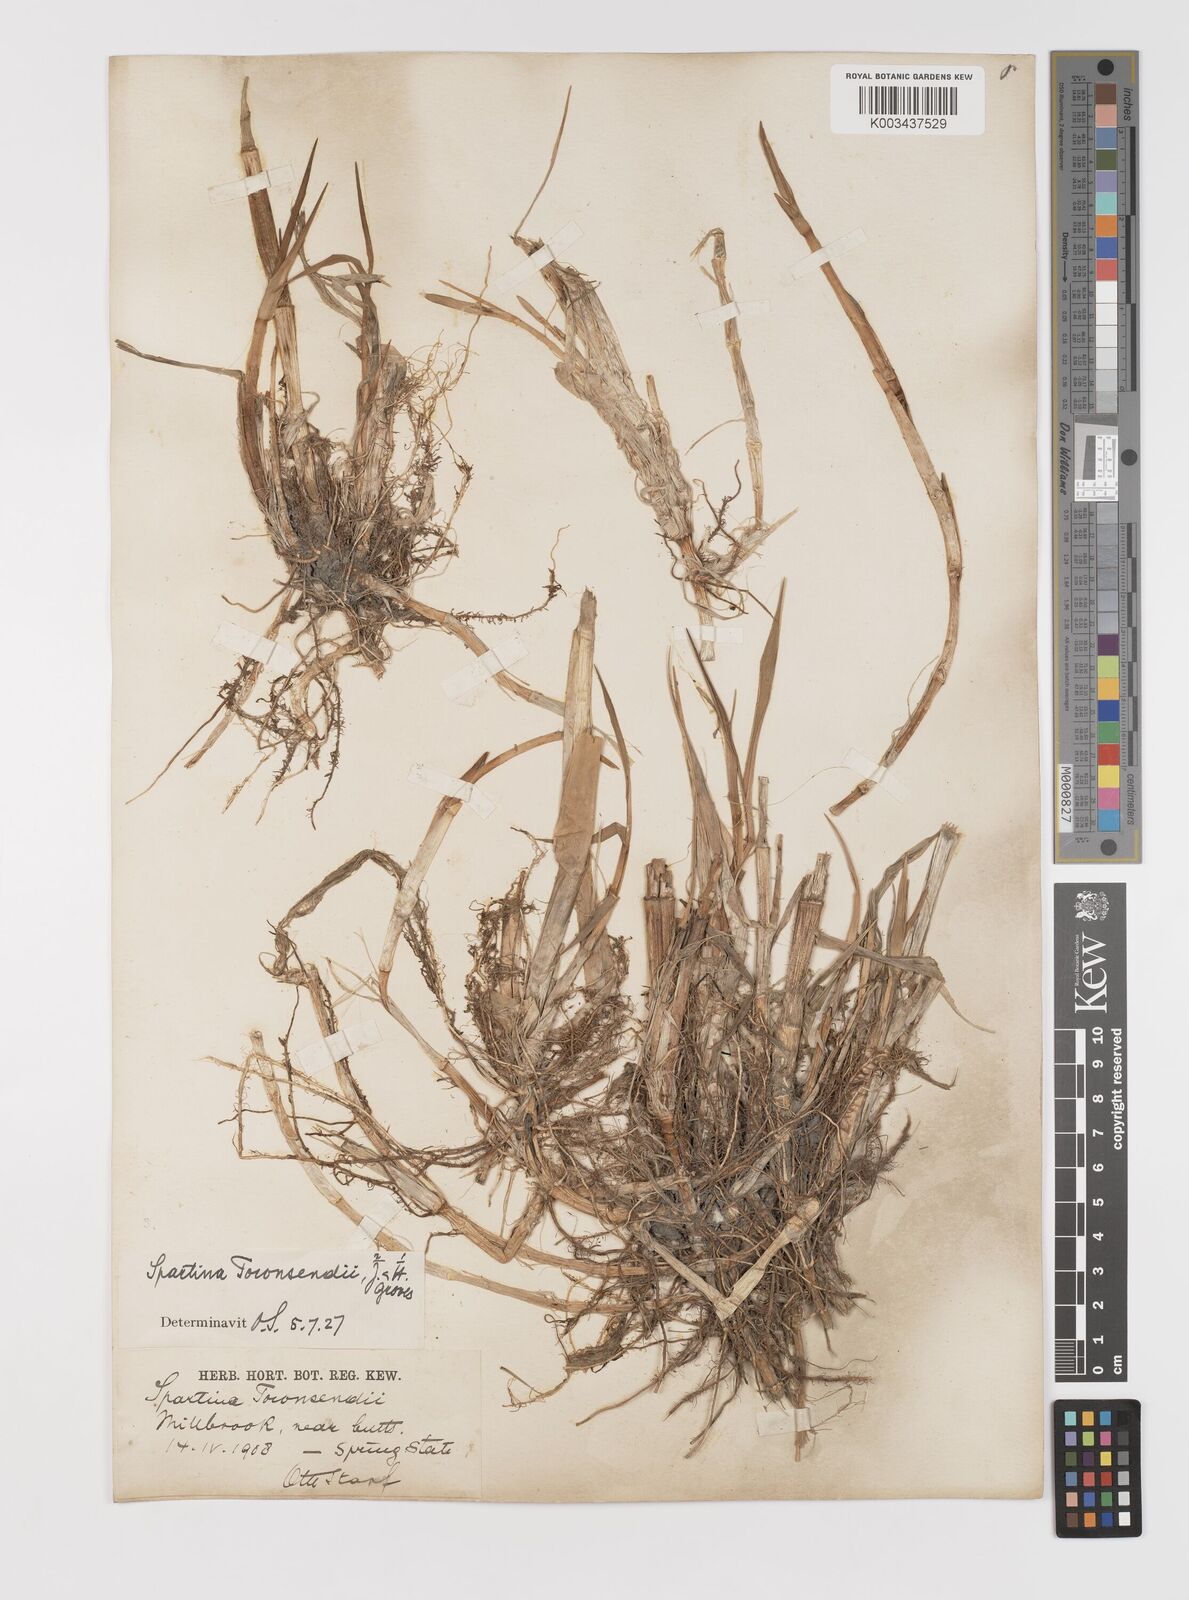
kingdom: Plantae
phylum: Tracheophyta
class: Liliopsida
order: Poales
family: Poaceae
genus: Sporobolus
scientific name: Sporobolus anglicus
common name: English cordgrass
